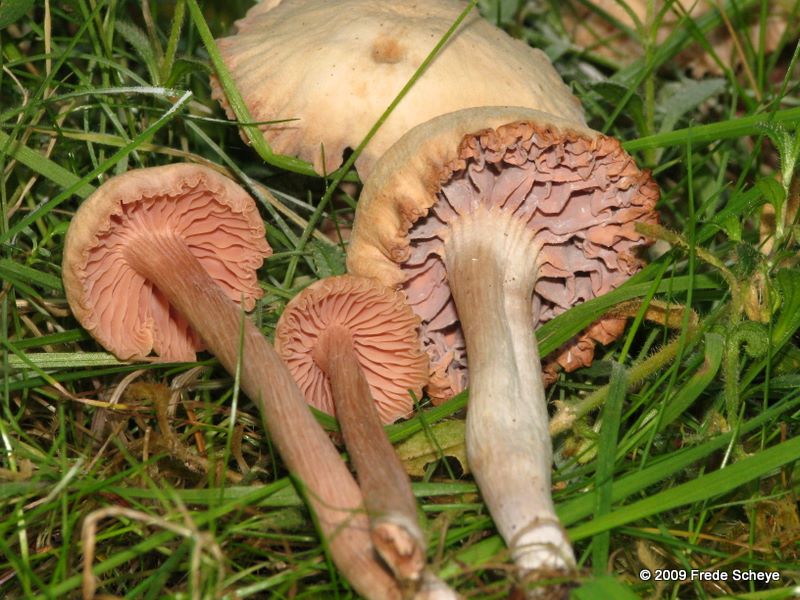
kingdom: Fungi
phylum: Basidiomycota
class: Agaricomycetes
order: Agaricales
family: Hydnangiaceae
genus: Laccaria
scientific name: Laccaria laccata
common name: rød ametysthat
